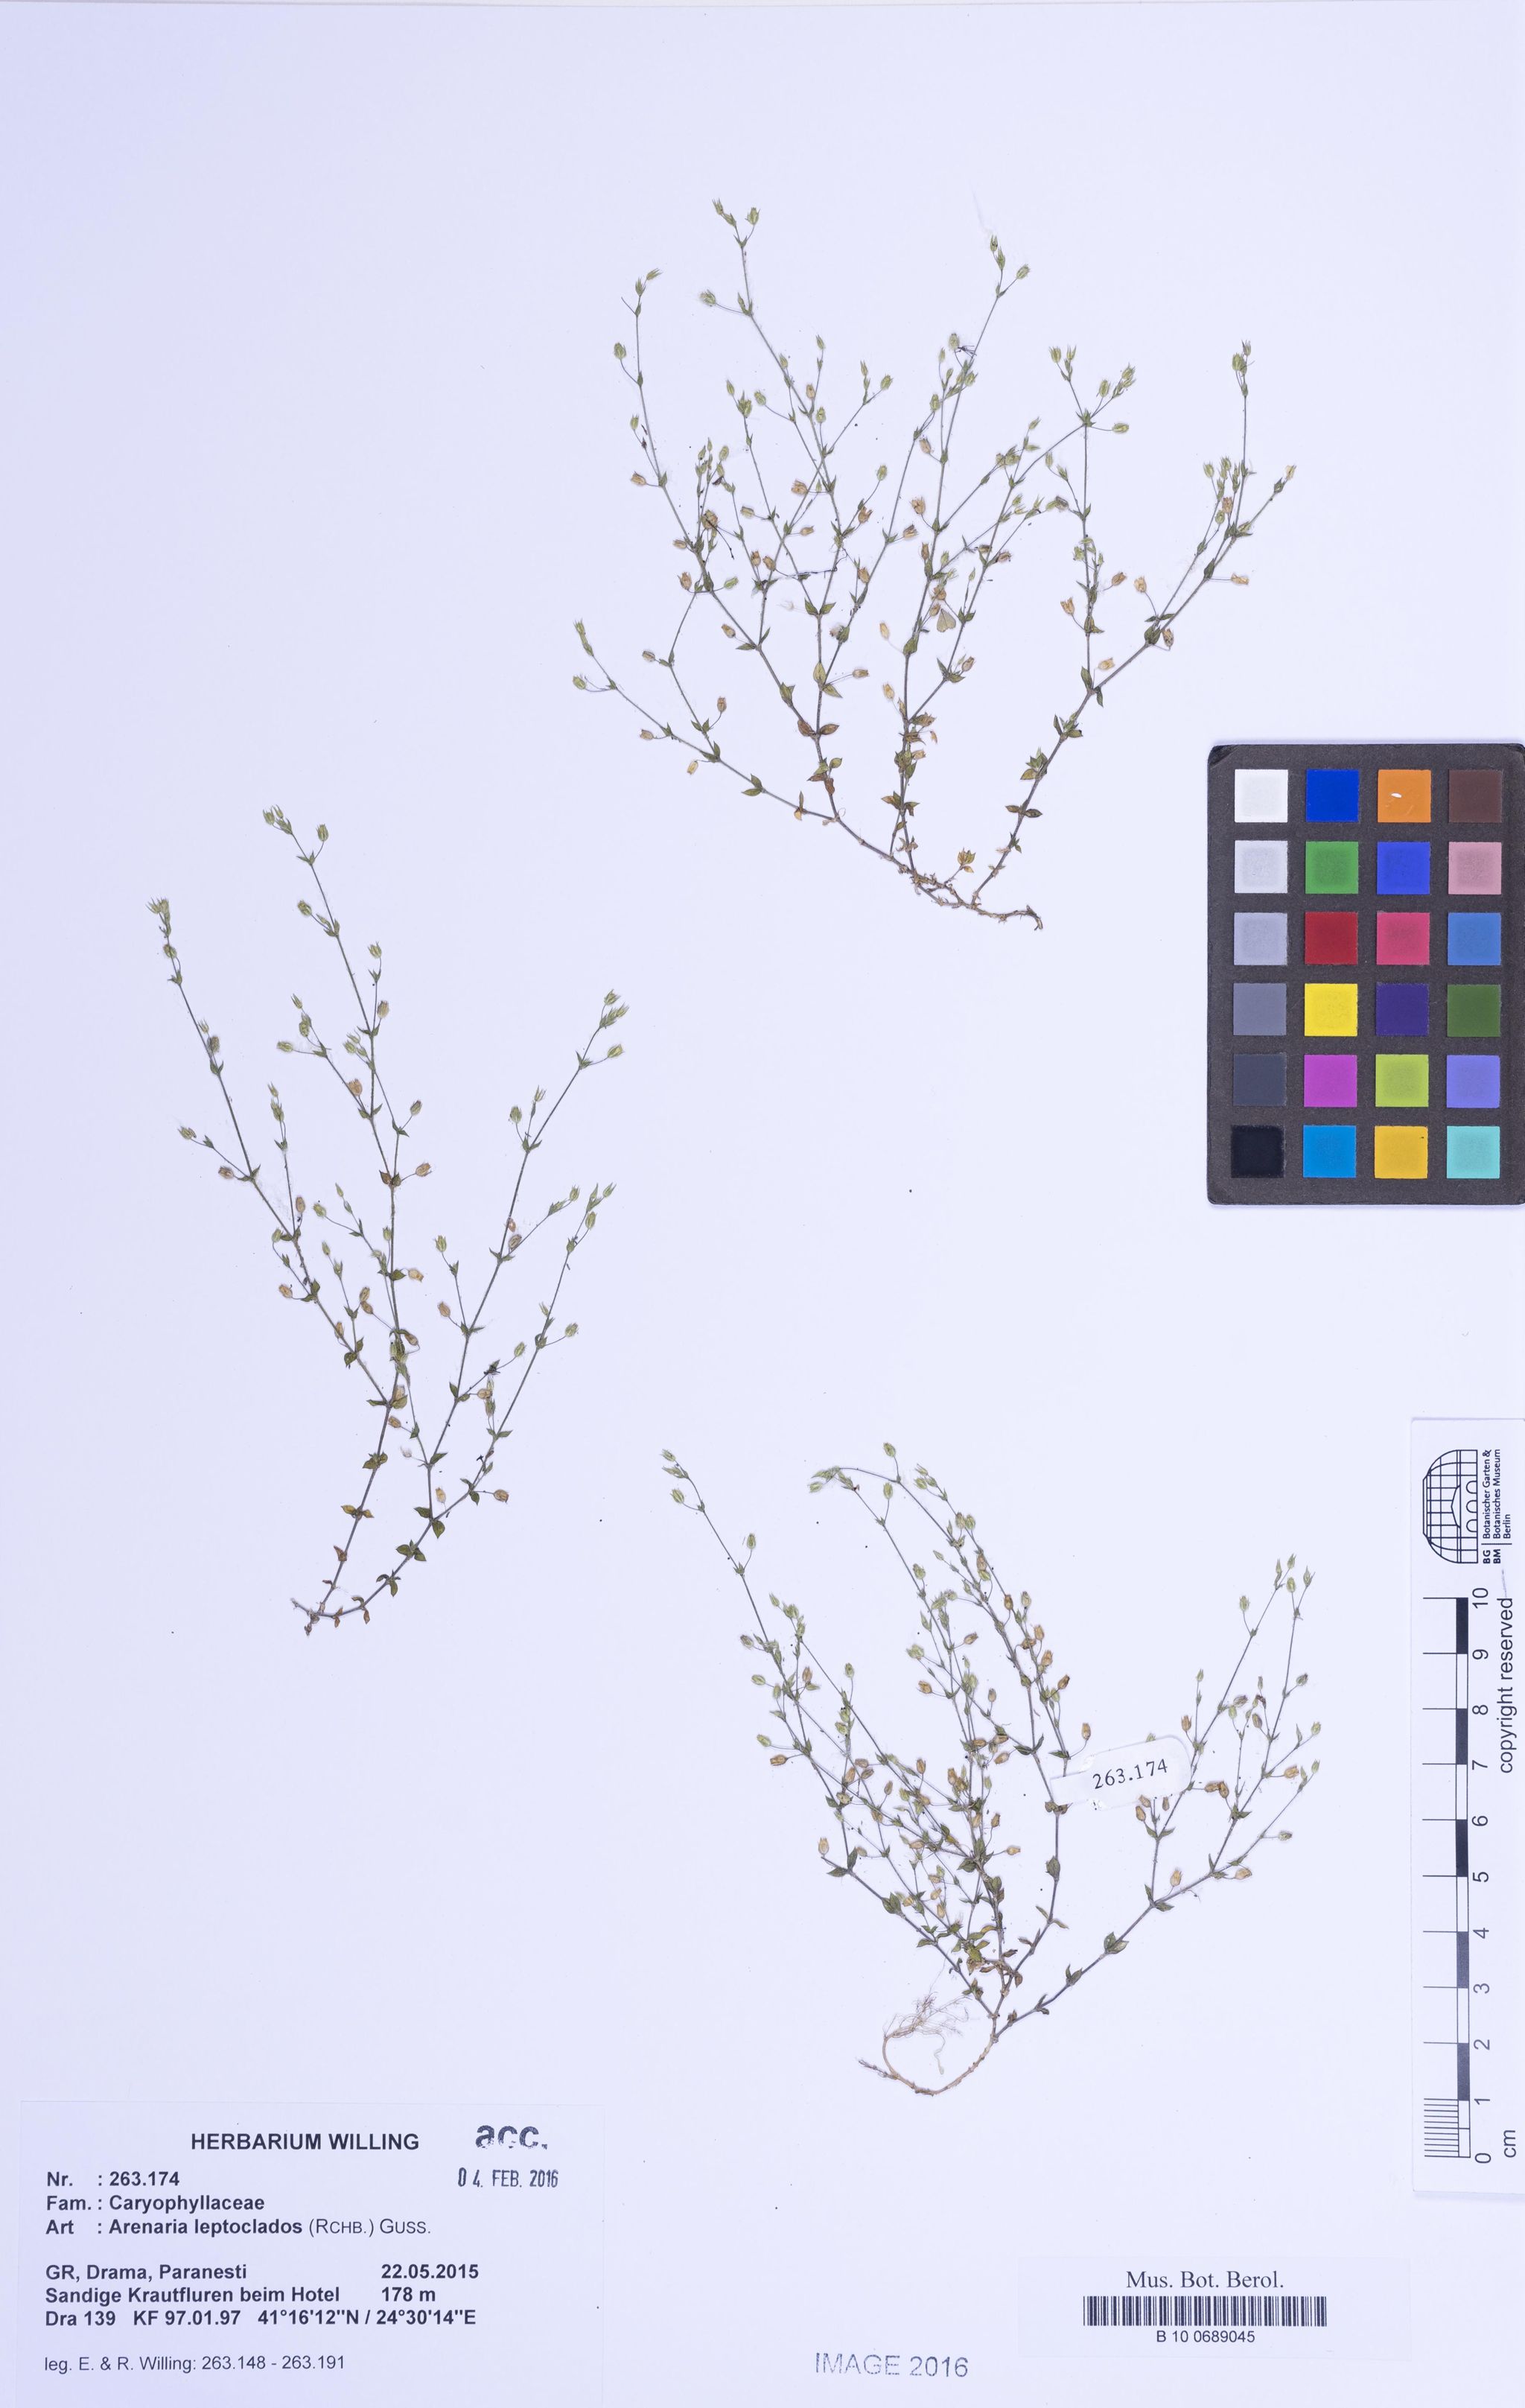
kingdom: Plantae
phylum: Tracheophyta
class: Magnoliopsida
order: Caryophyllales
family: Caryophyllaceae
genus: Arenaria
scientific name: Arenaria leptoclados
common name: Thyme-leaved sandwort
